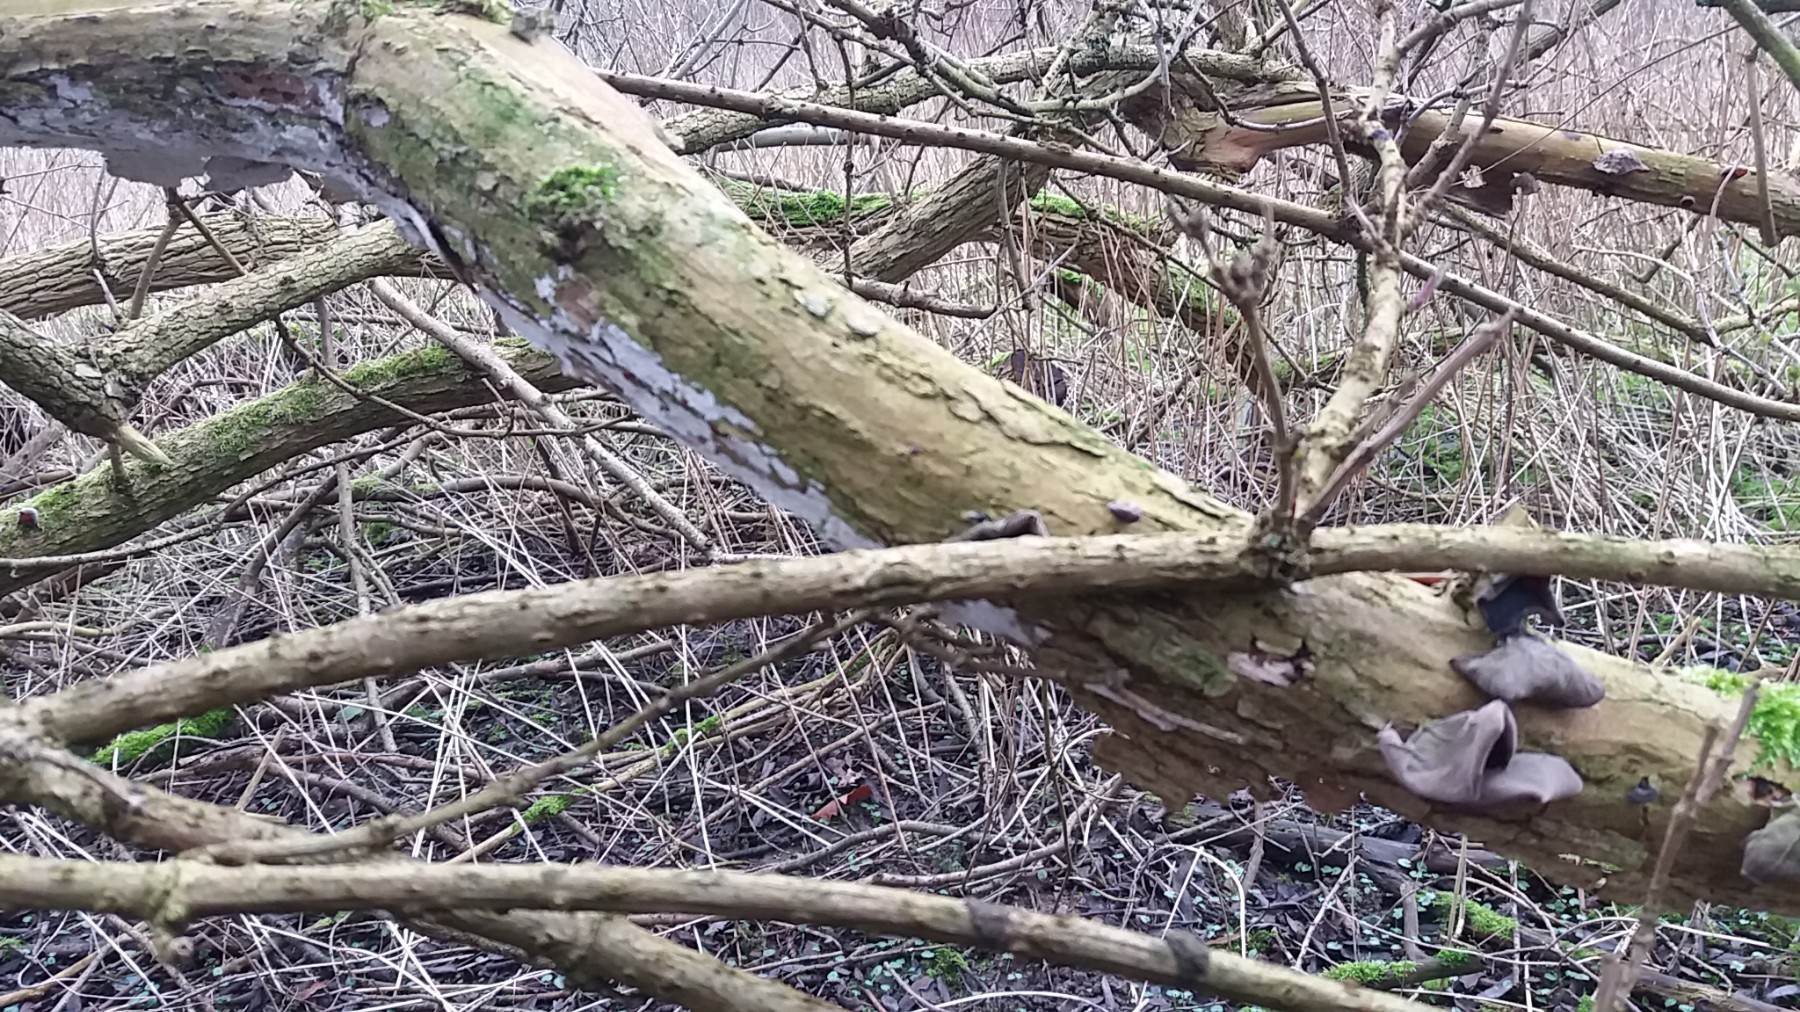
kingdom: Fungi
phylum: Basidiomycota
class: Agaricomycetes
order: Corticiales
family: Corticiaceae
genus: Lyomyces
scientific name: Lyomyces sambuci
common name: almindelig hyldehinde
